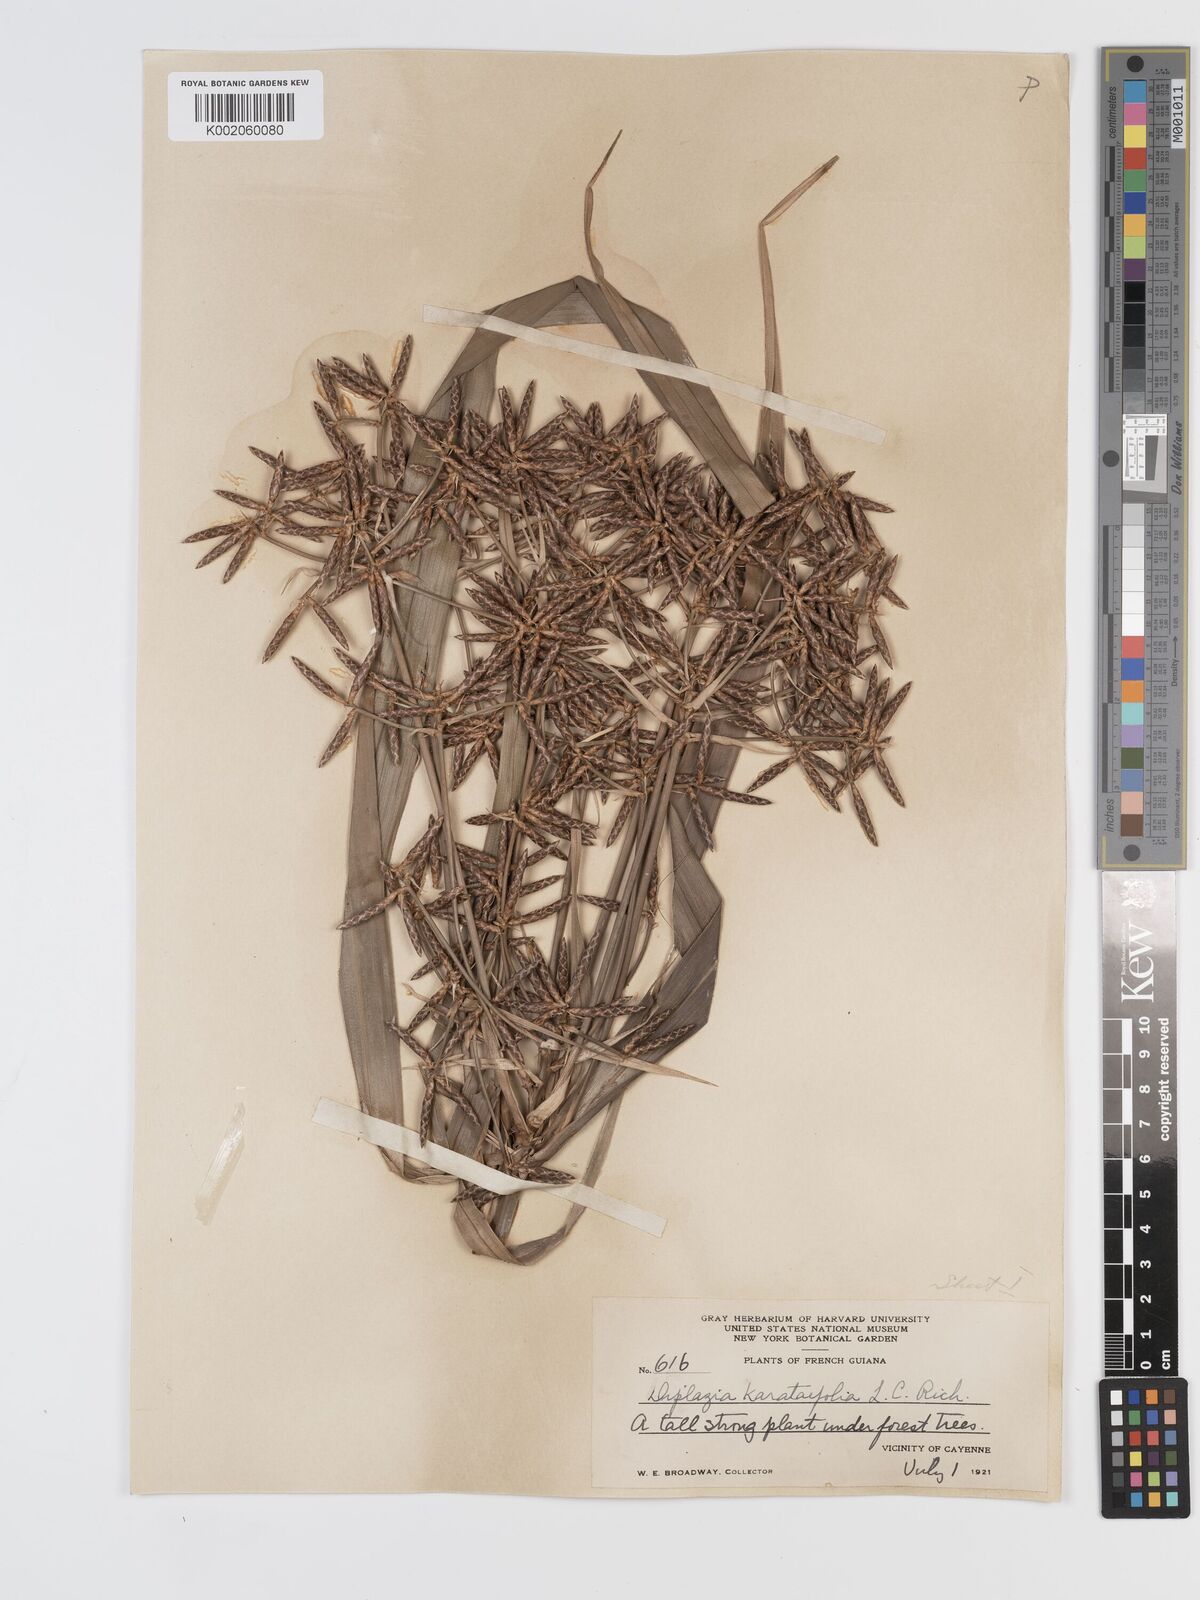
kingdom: Plantae
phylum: Tracheophyta
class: Liliopsida
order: Poales
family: Cyperaceae
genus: Diplasia
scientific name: Diplasia karatifolia
